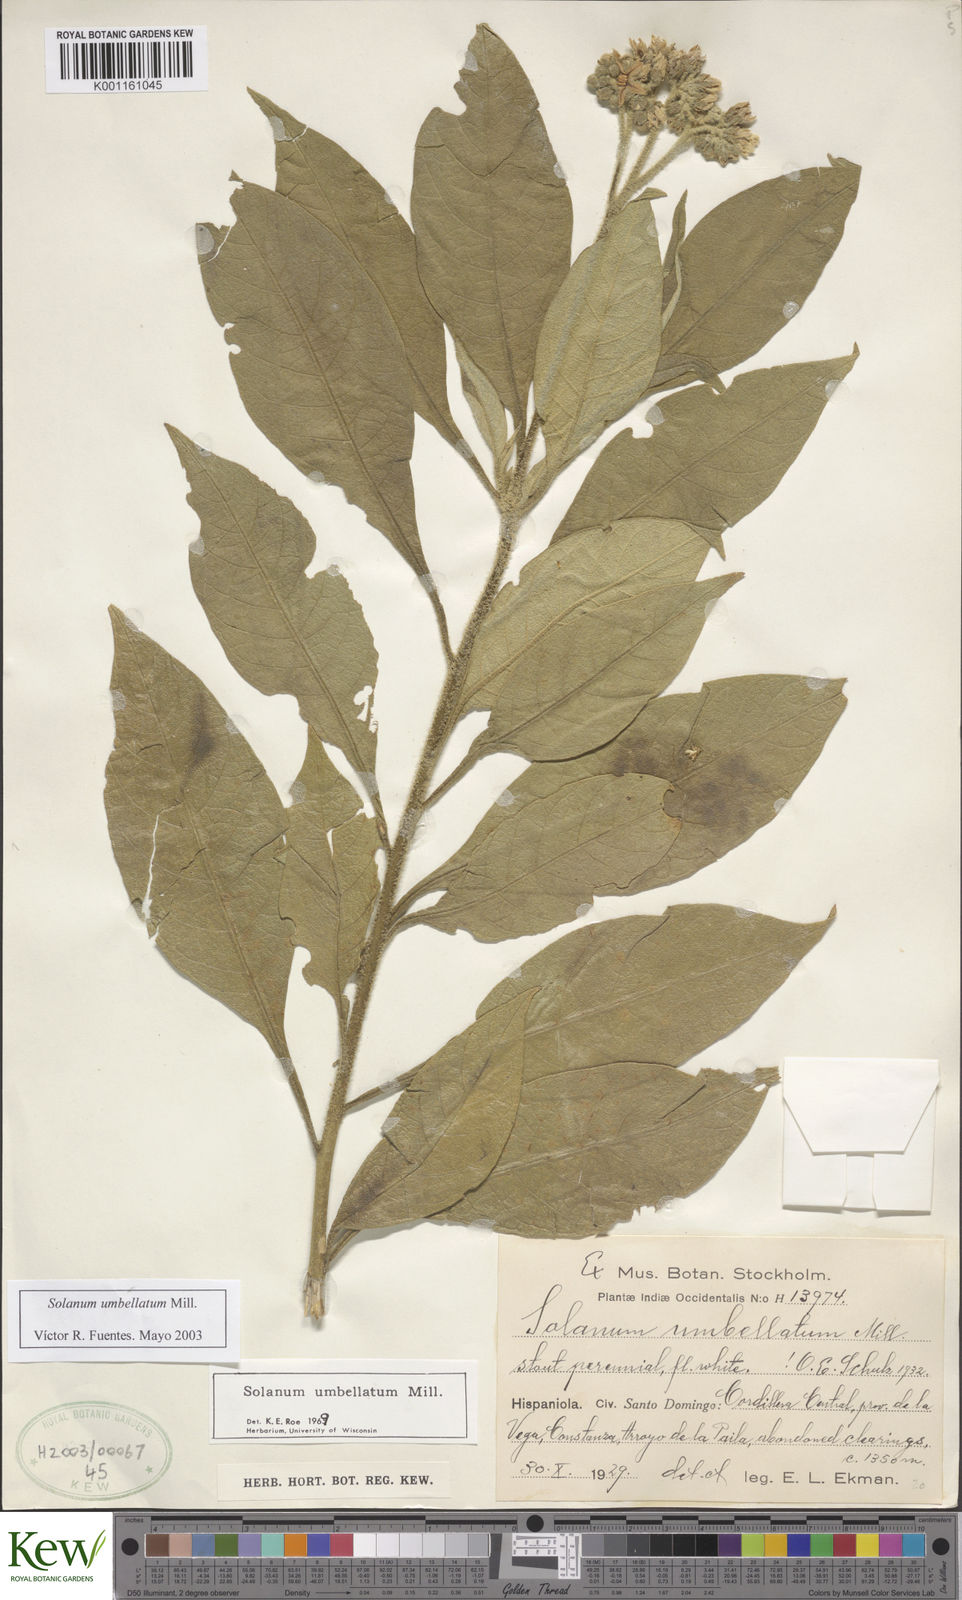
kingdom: Plantae
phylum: Tracheophyta
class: Magnoliopsida
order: Solanales
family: Solanaceae
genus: Solanum
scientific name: Solanum umbellatum
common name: Nightshade
